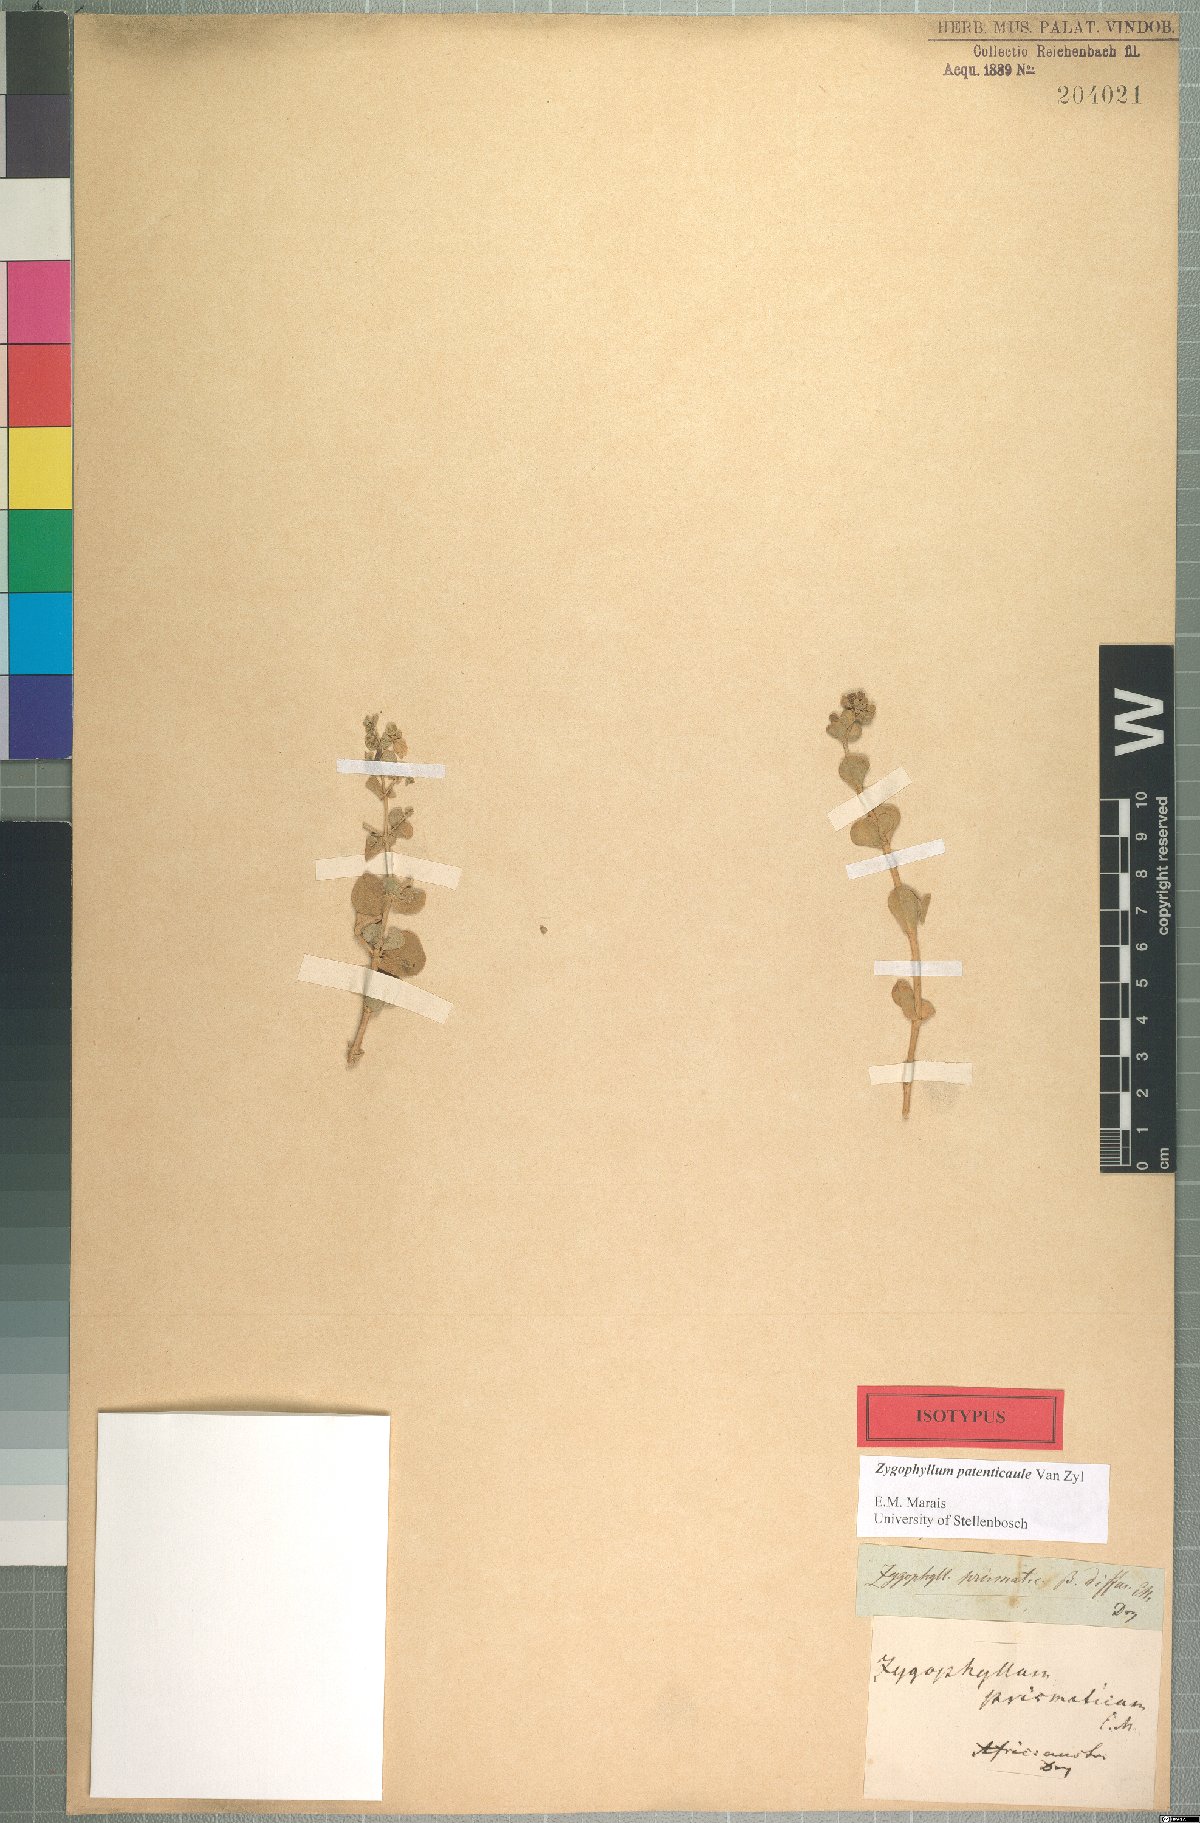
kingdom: Plantae
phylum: Tracheophyta
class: Magnoliopsida
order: Zygophyllales
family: Zygophyllaceae
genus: Tetraena
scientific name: Tetraena prismatocarpa
